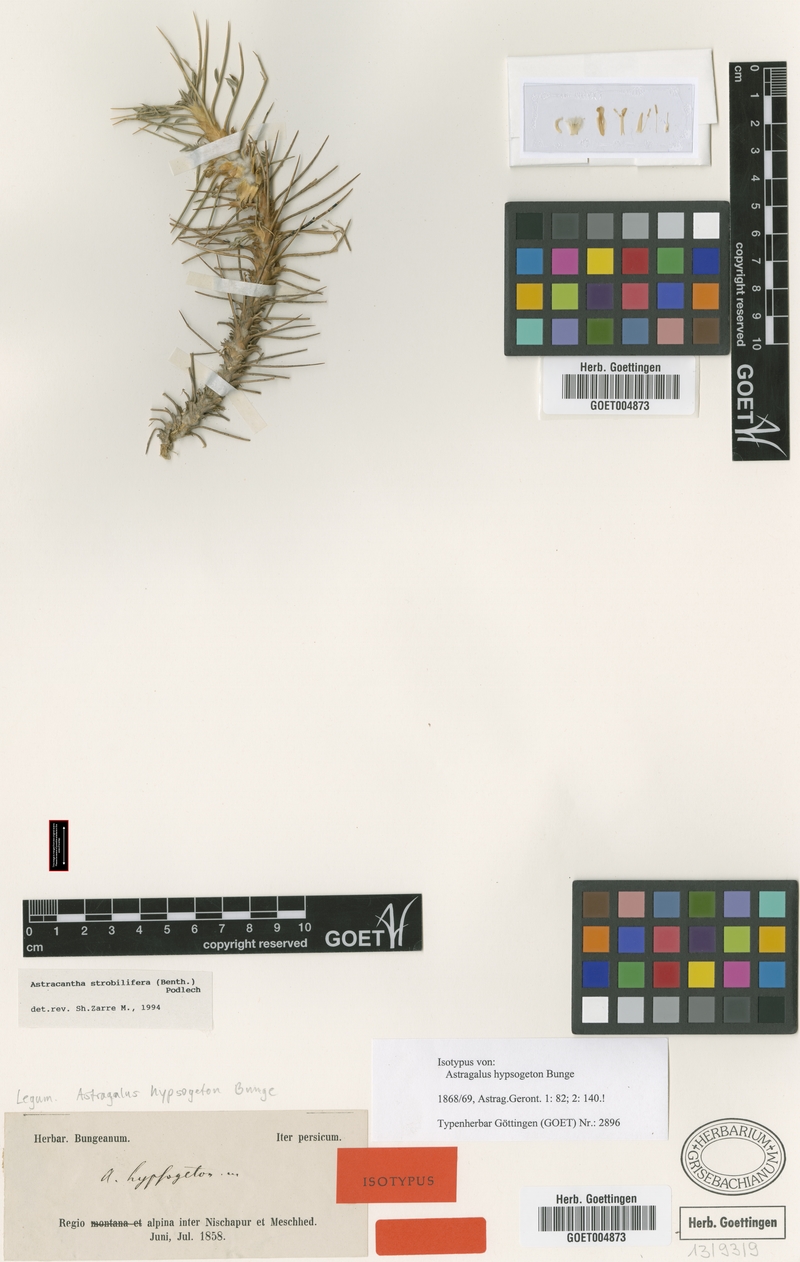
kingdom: Plantae
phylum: Tracheophyta
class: Magnoliopsida
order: Fabales
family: Fabaceae
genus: Astragalus
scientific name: Astragalus strobiliferus
